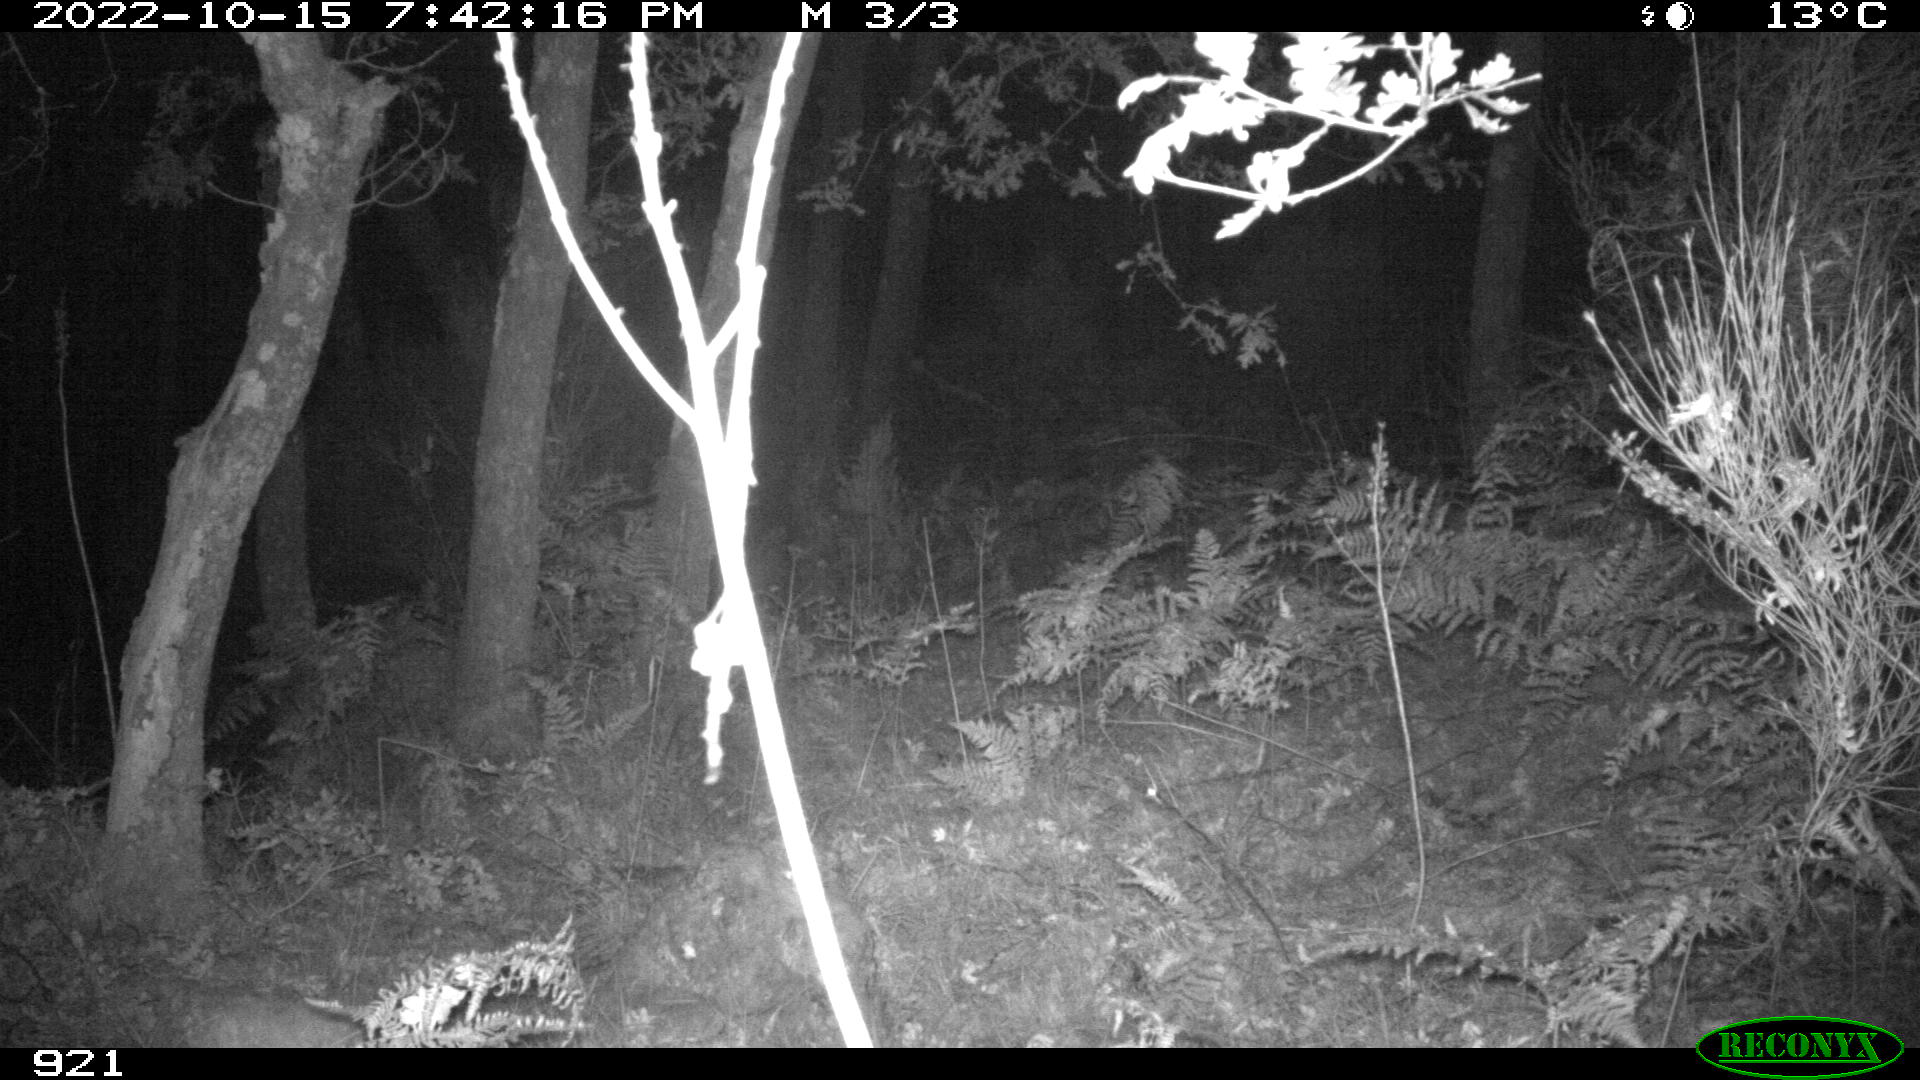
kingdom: Animalia
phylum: Chordata
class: Mammalia
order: Artiodactyla
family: Cervidae
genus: Capreolus
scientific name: Capreolus capreolus
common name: Western roe deer
